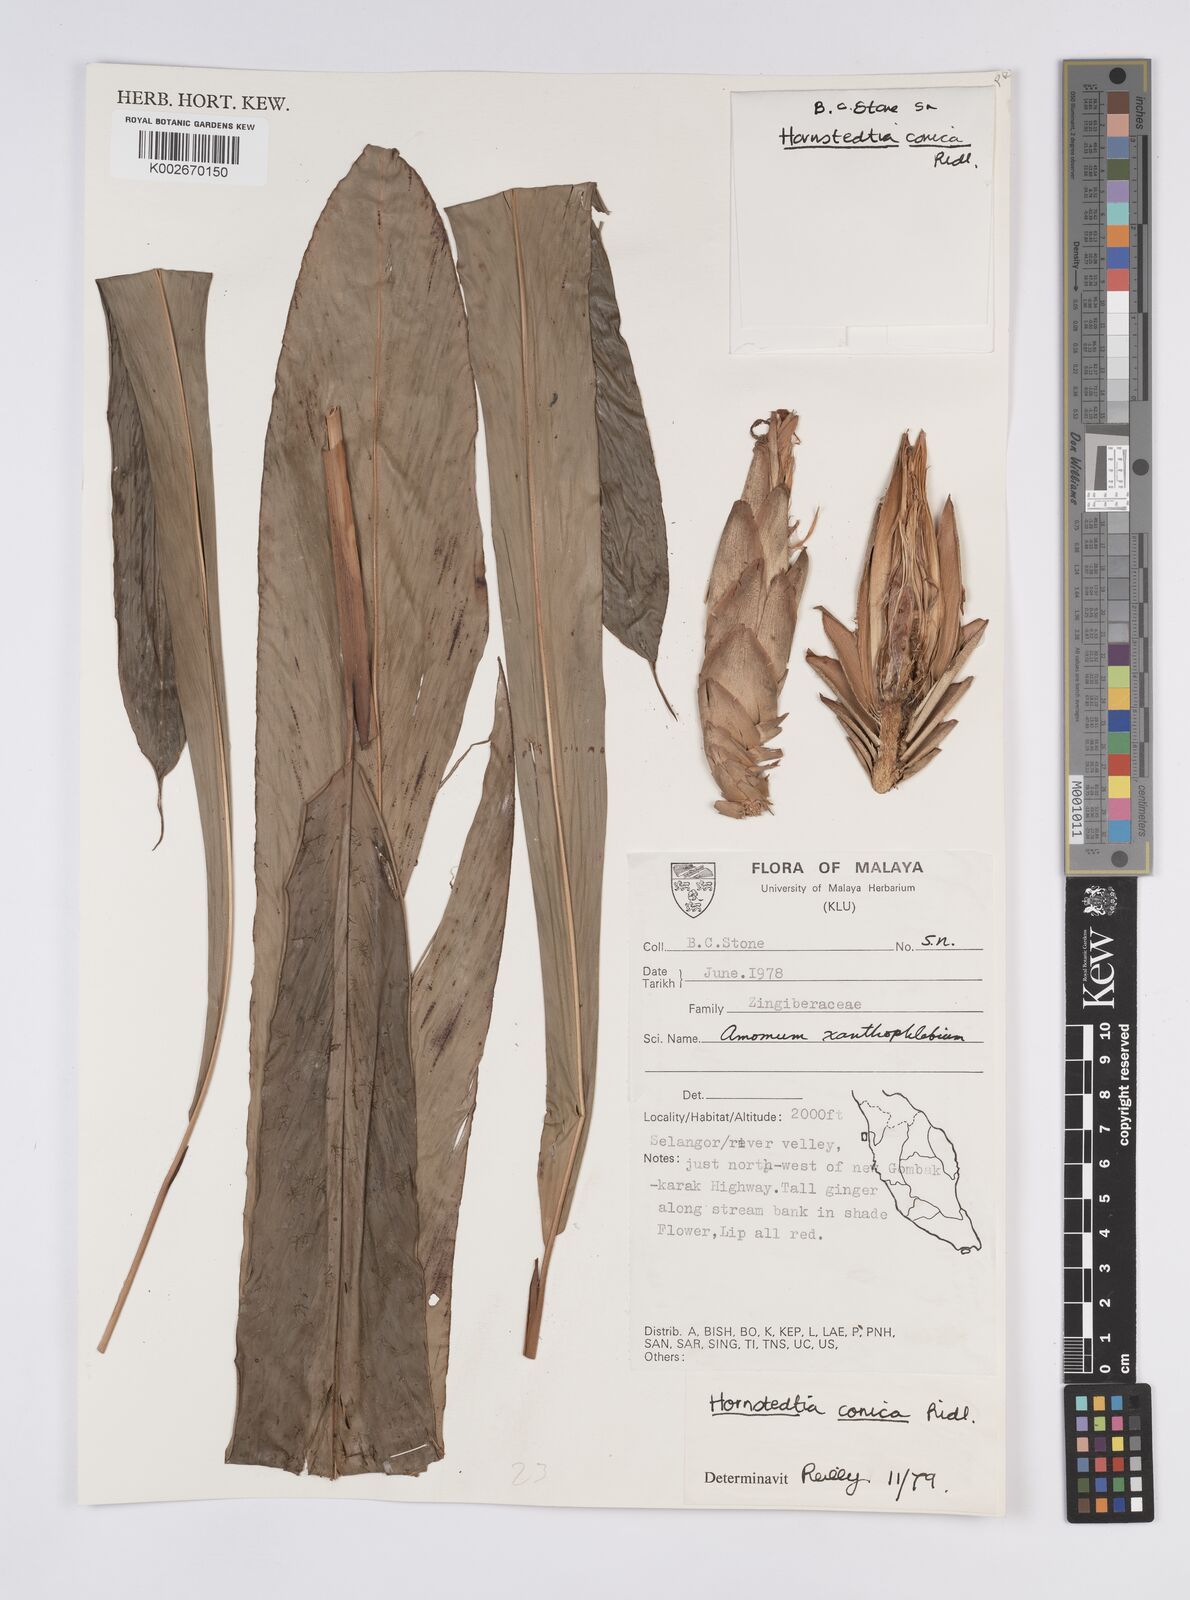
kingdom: Plantae
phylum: Tracheophyta
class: Liliopsida
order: Zingiberales
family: Zingiberaceae
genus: Hornstedtia
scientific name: Hornstedtia conica
